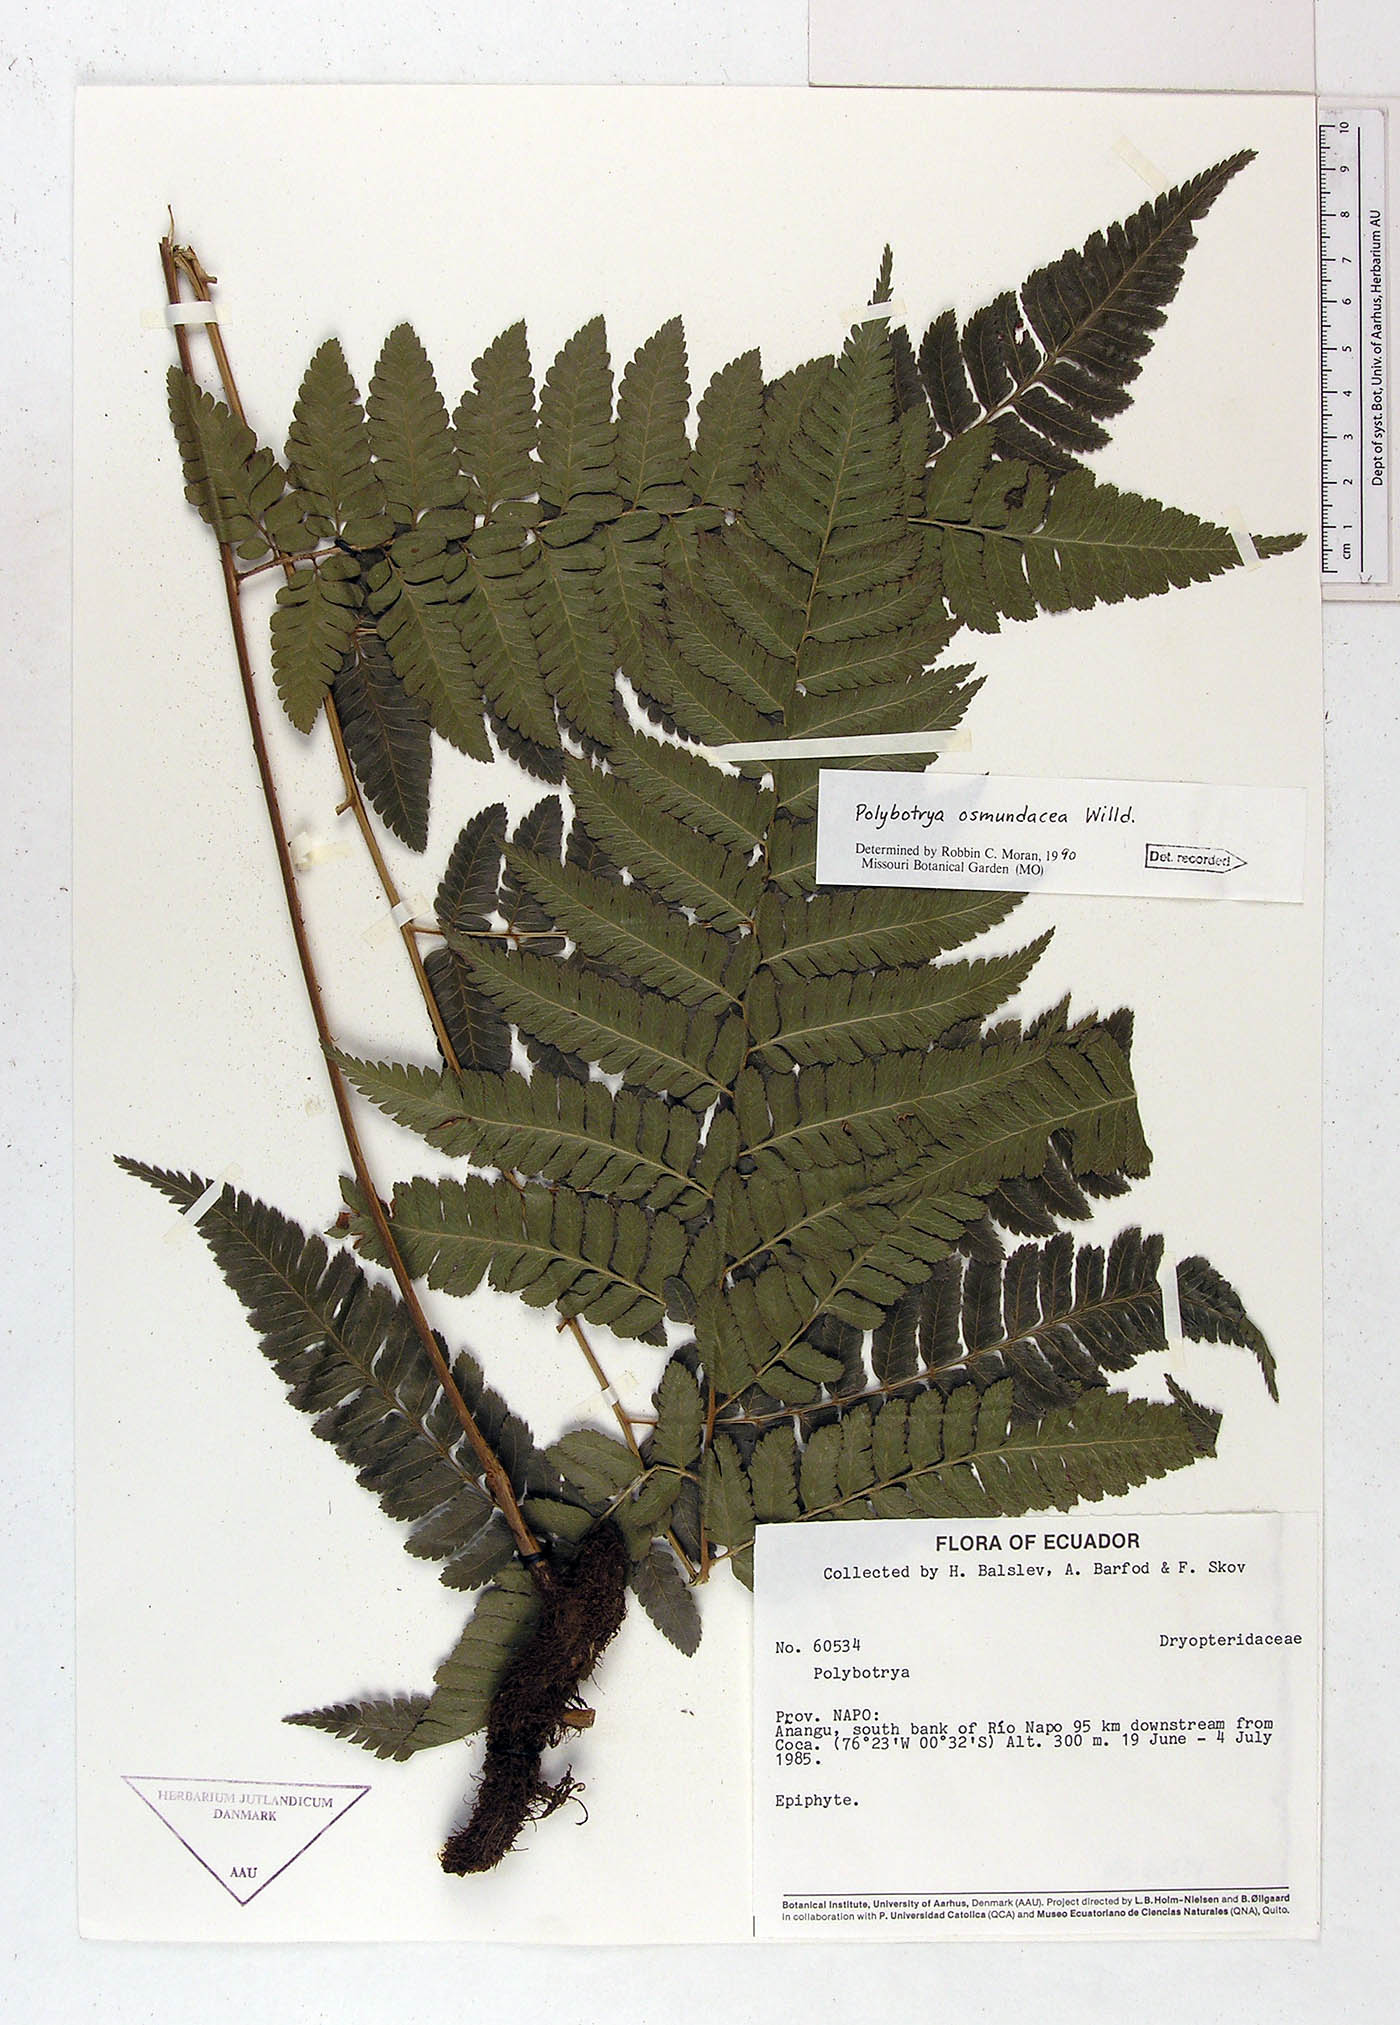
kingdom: Plantae
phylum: Tracheophyta
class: Polypodiopsida
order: Polypodiales
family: Dryopteridaceae
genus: Polybotrya
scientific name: Polybotrya osmundacea
